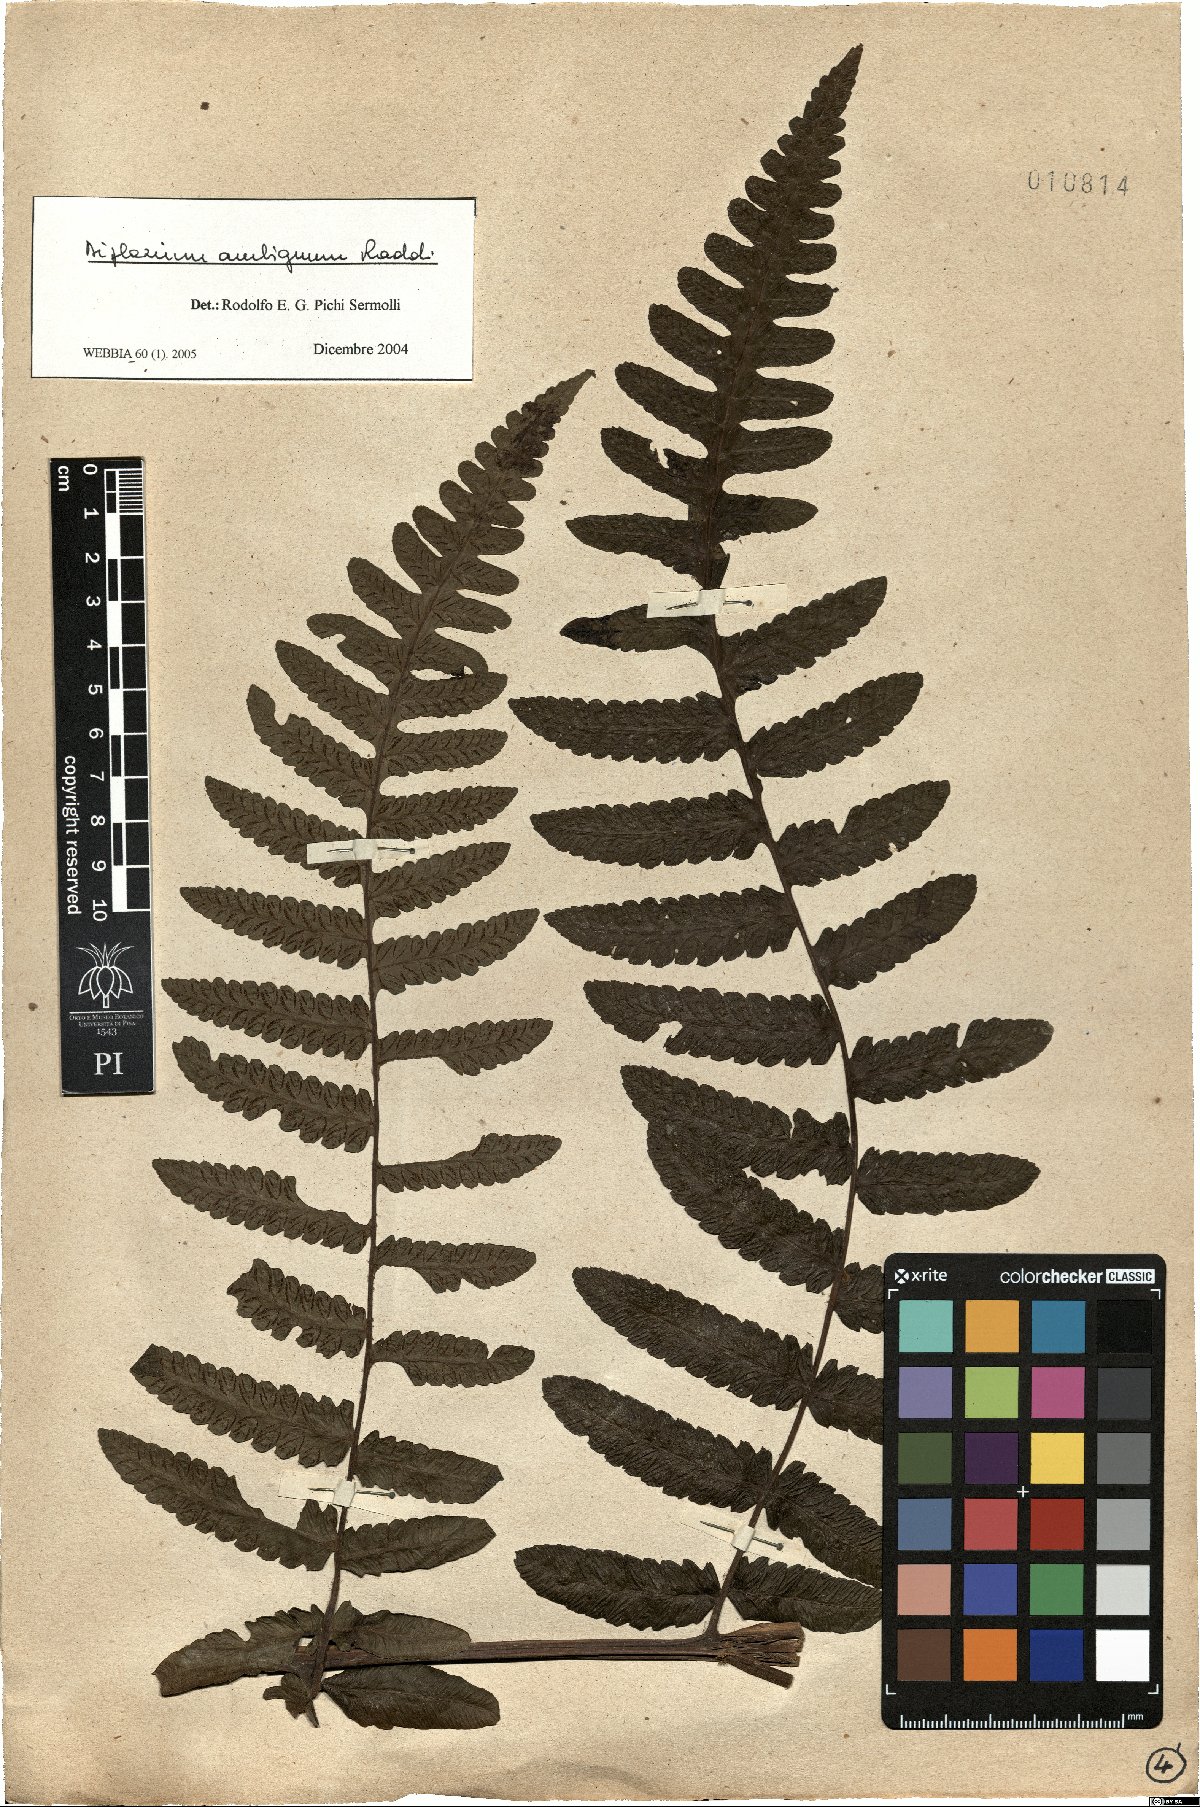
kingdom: Plantae
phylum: Tracheophyta
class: Polypodiopsida
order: Polypodiales
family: Athyriaceae
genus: Diplazium
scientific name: Diplazium ambiguum
